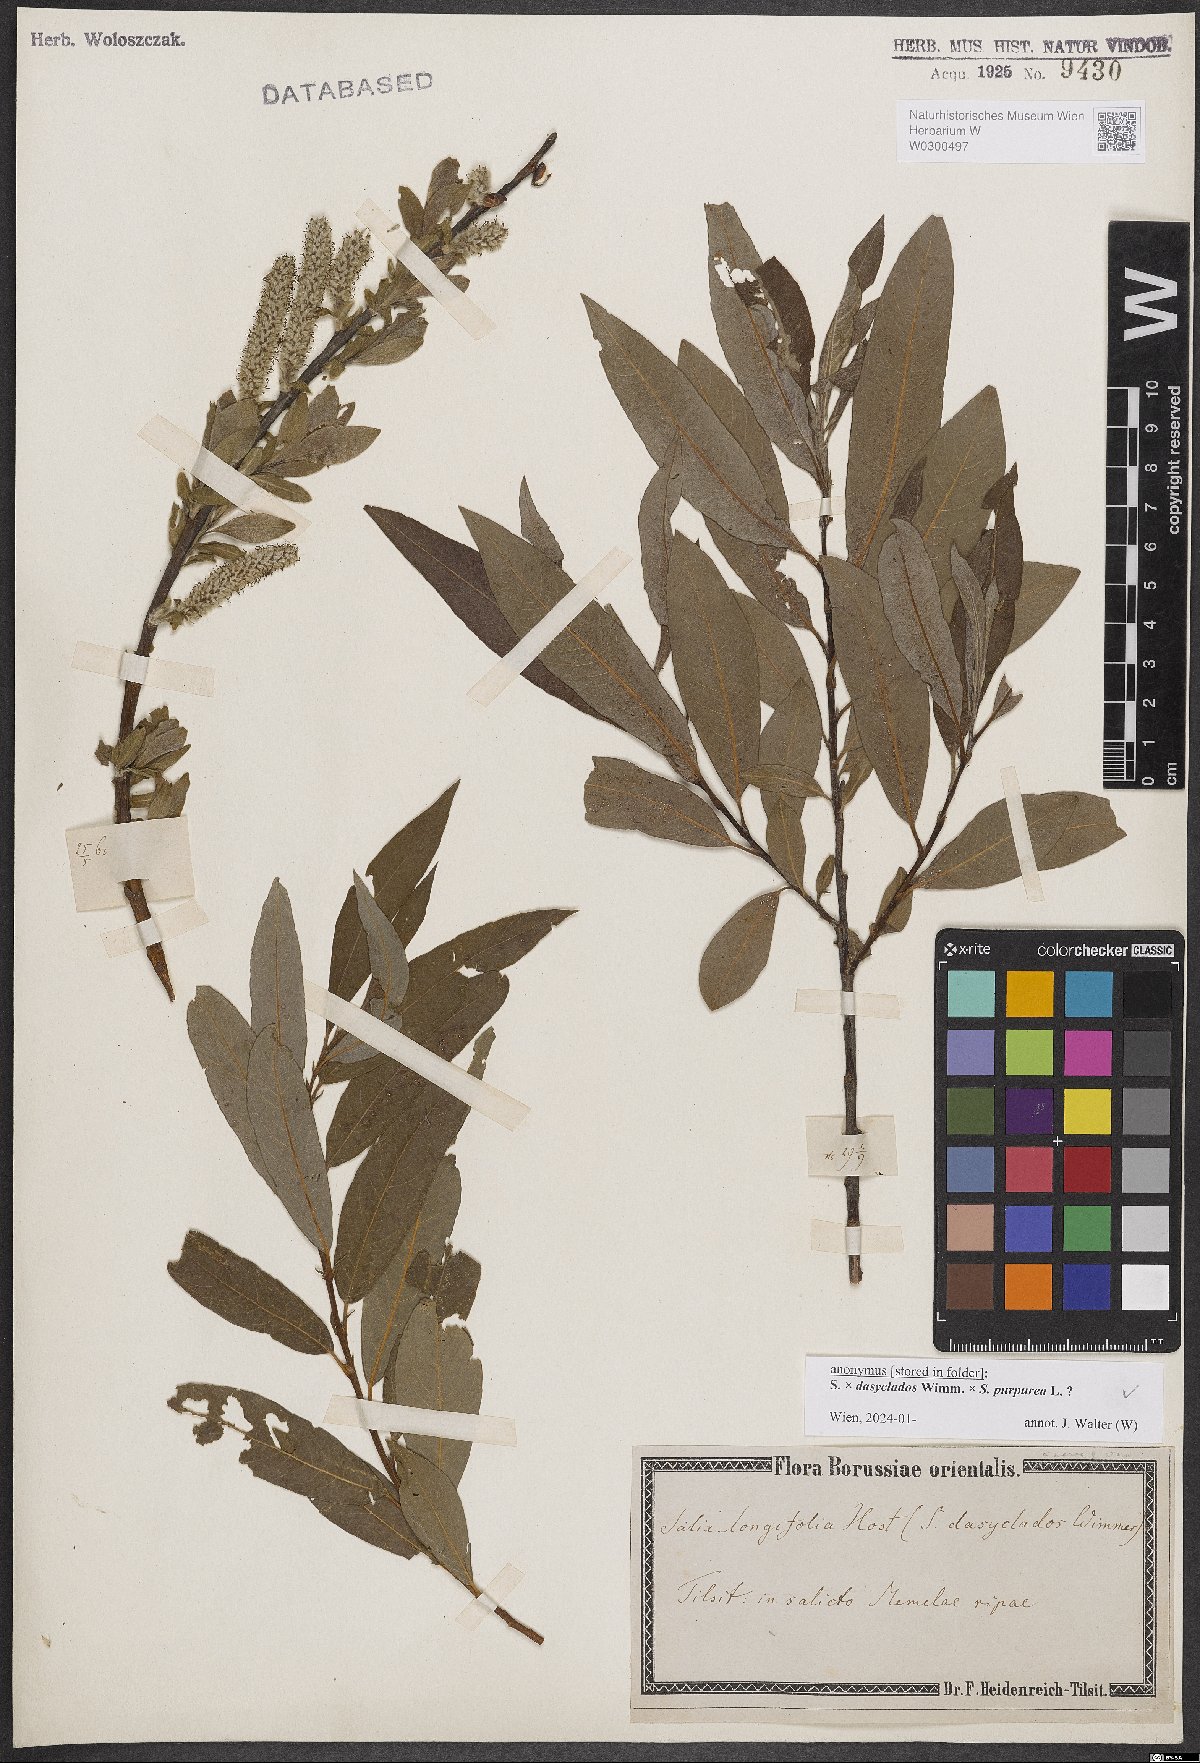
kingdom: Plantae
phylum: Tracheophyta
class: Magnoliopsida
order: Malpighiales
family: Salicaceae
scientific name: Salicaceae
